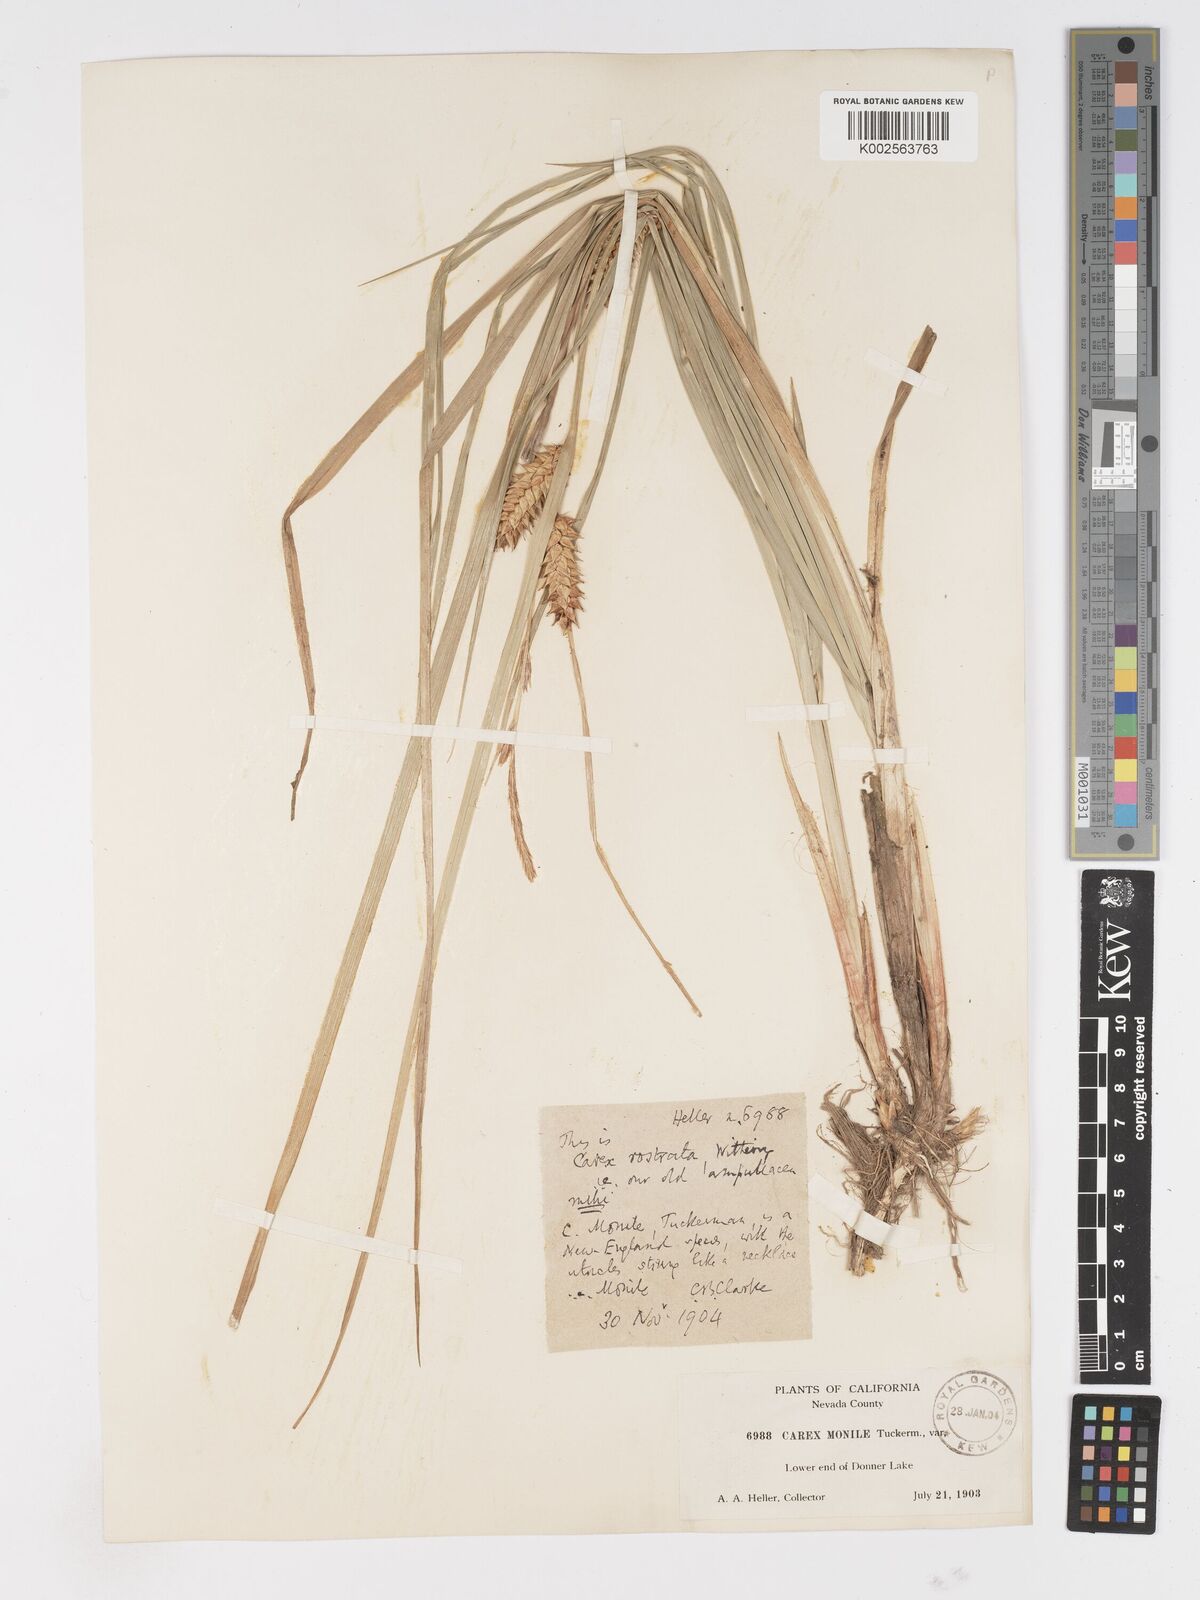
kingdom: Plantae
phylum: Tracheophyta
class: Liliopsida
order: Poales
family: Cyperaceae
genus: Carex
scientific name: Carex vesicaria
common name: Bladder-sedge
